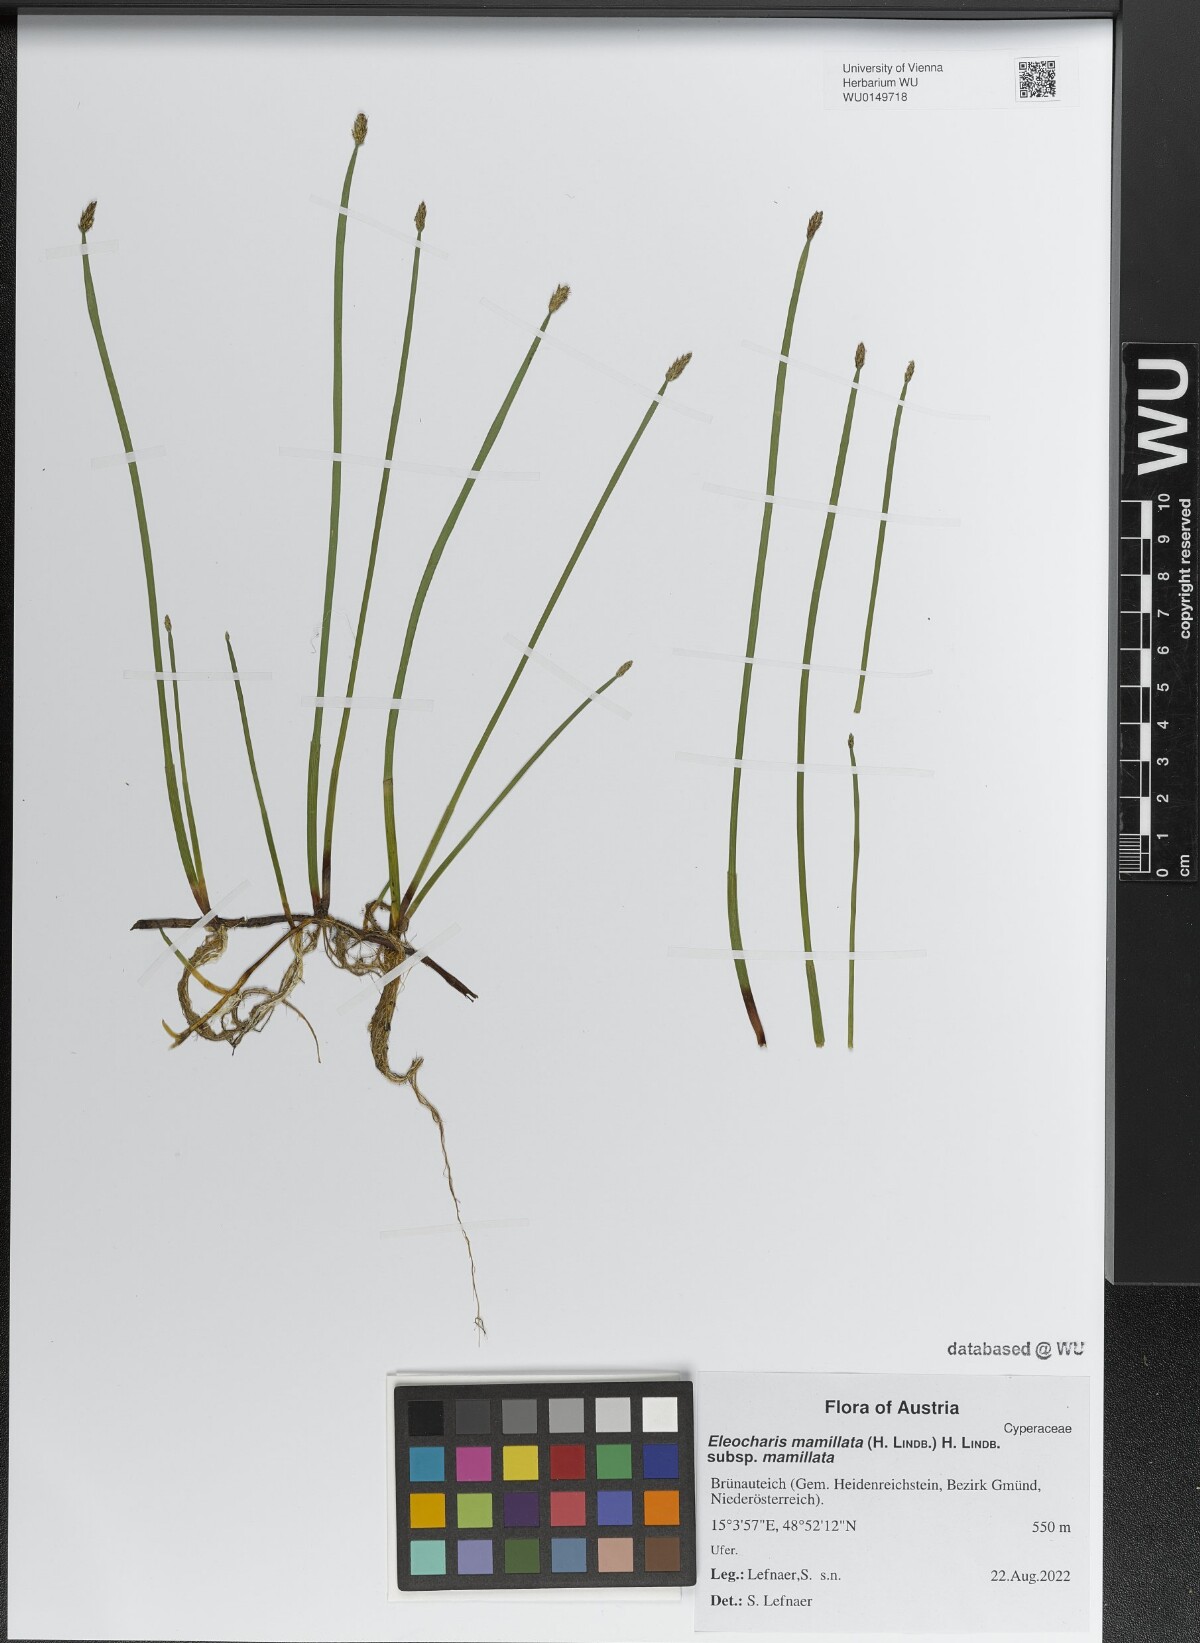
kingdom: Plantae
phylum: Tracheophyta
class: Liliopsida
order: Poales
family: Cyperaceae
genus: Eleocharis
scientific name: Eleocharis mamillata
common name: Northern spike-rush
